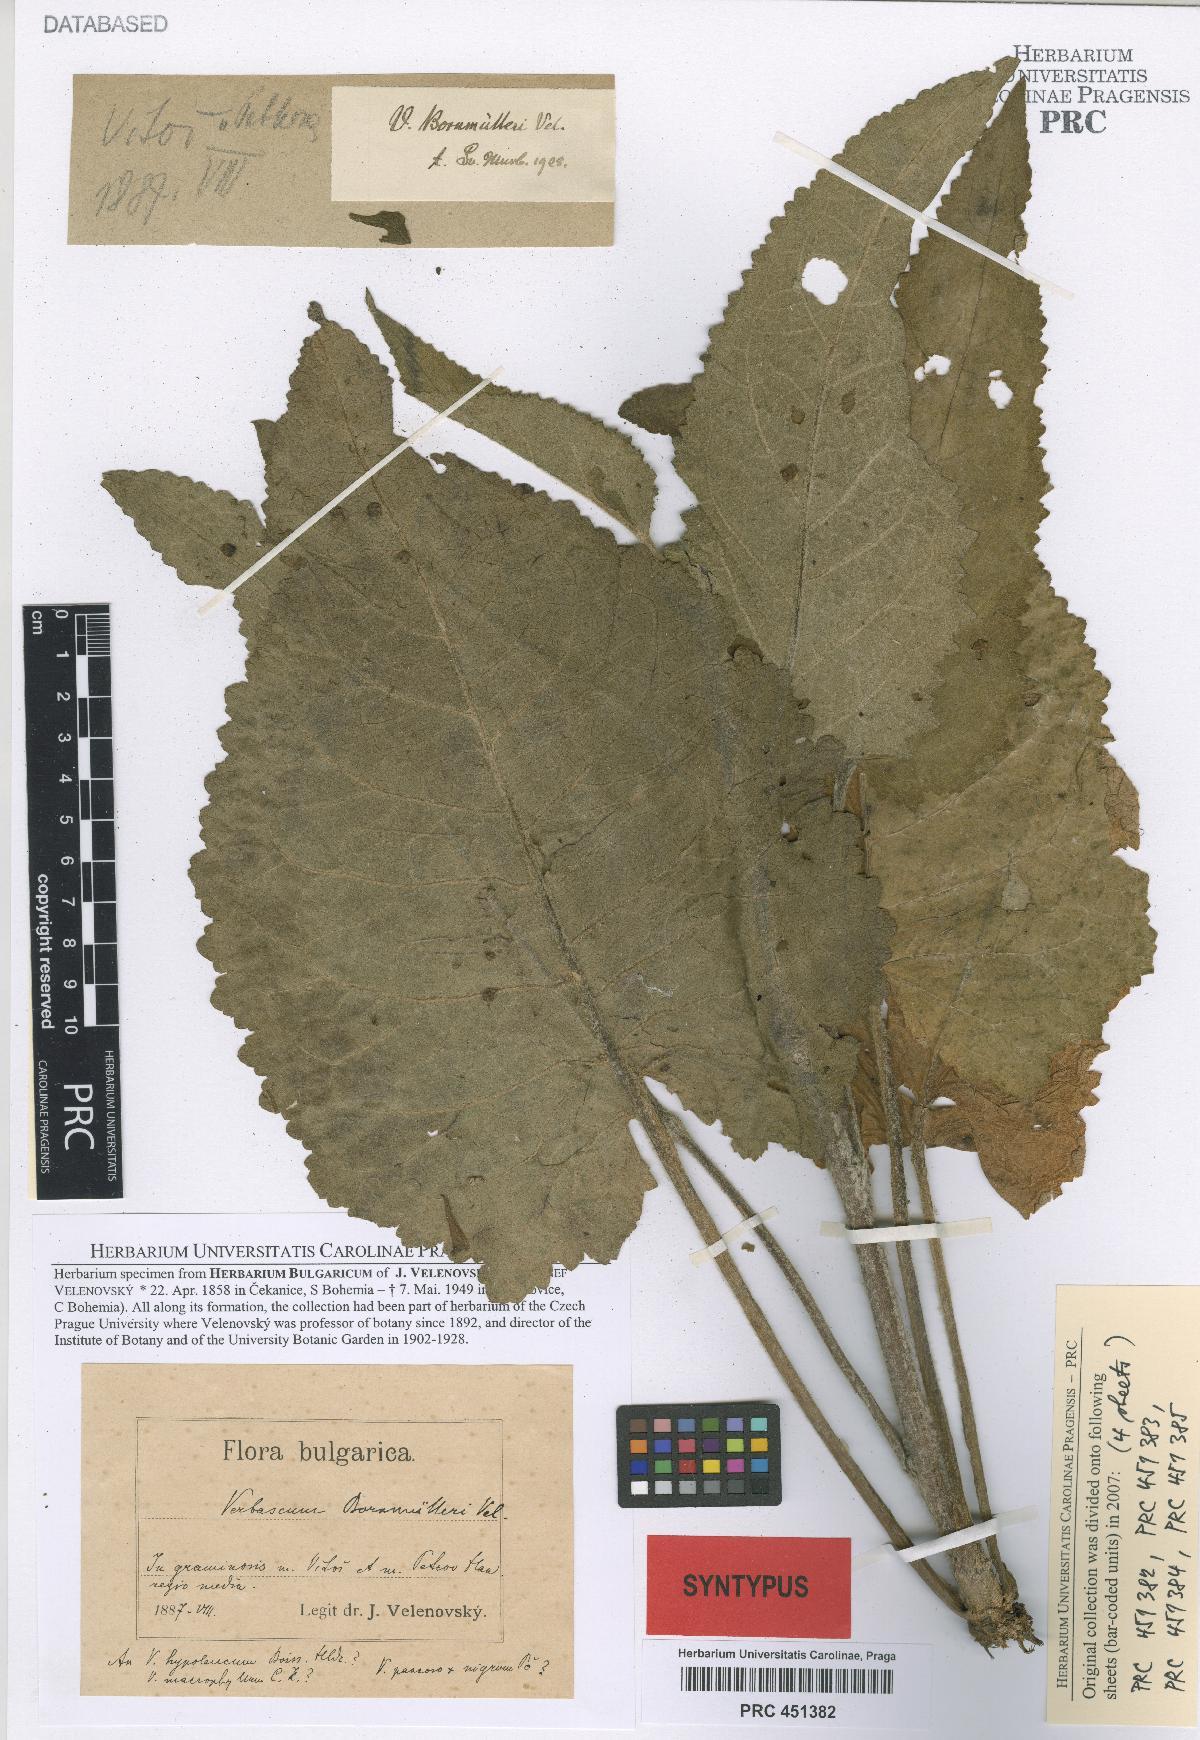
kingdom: Plantae
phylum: Tracheophyta
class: Magnoliopsida
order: Lamiales
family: Scrophulariaceae
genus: Verbascum
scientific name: Verbascum nigrum
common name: Dark mullein
